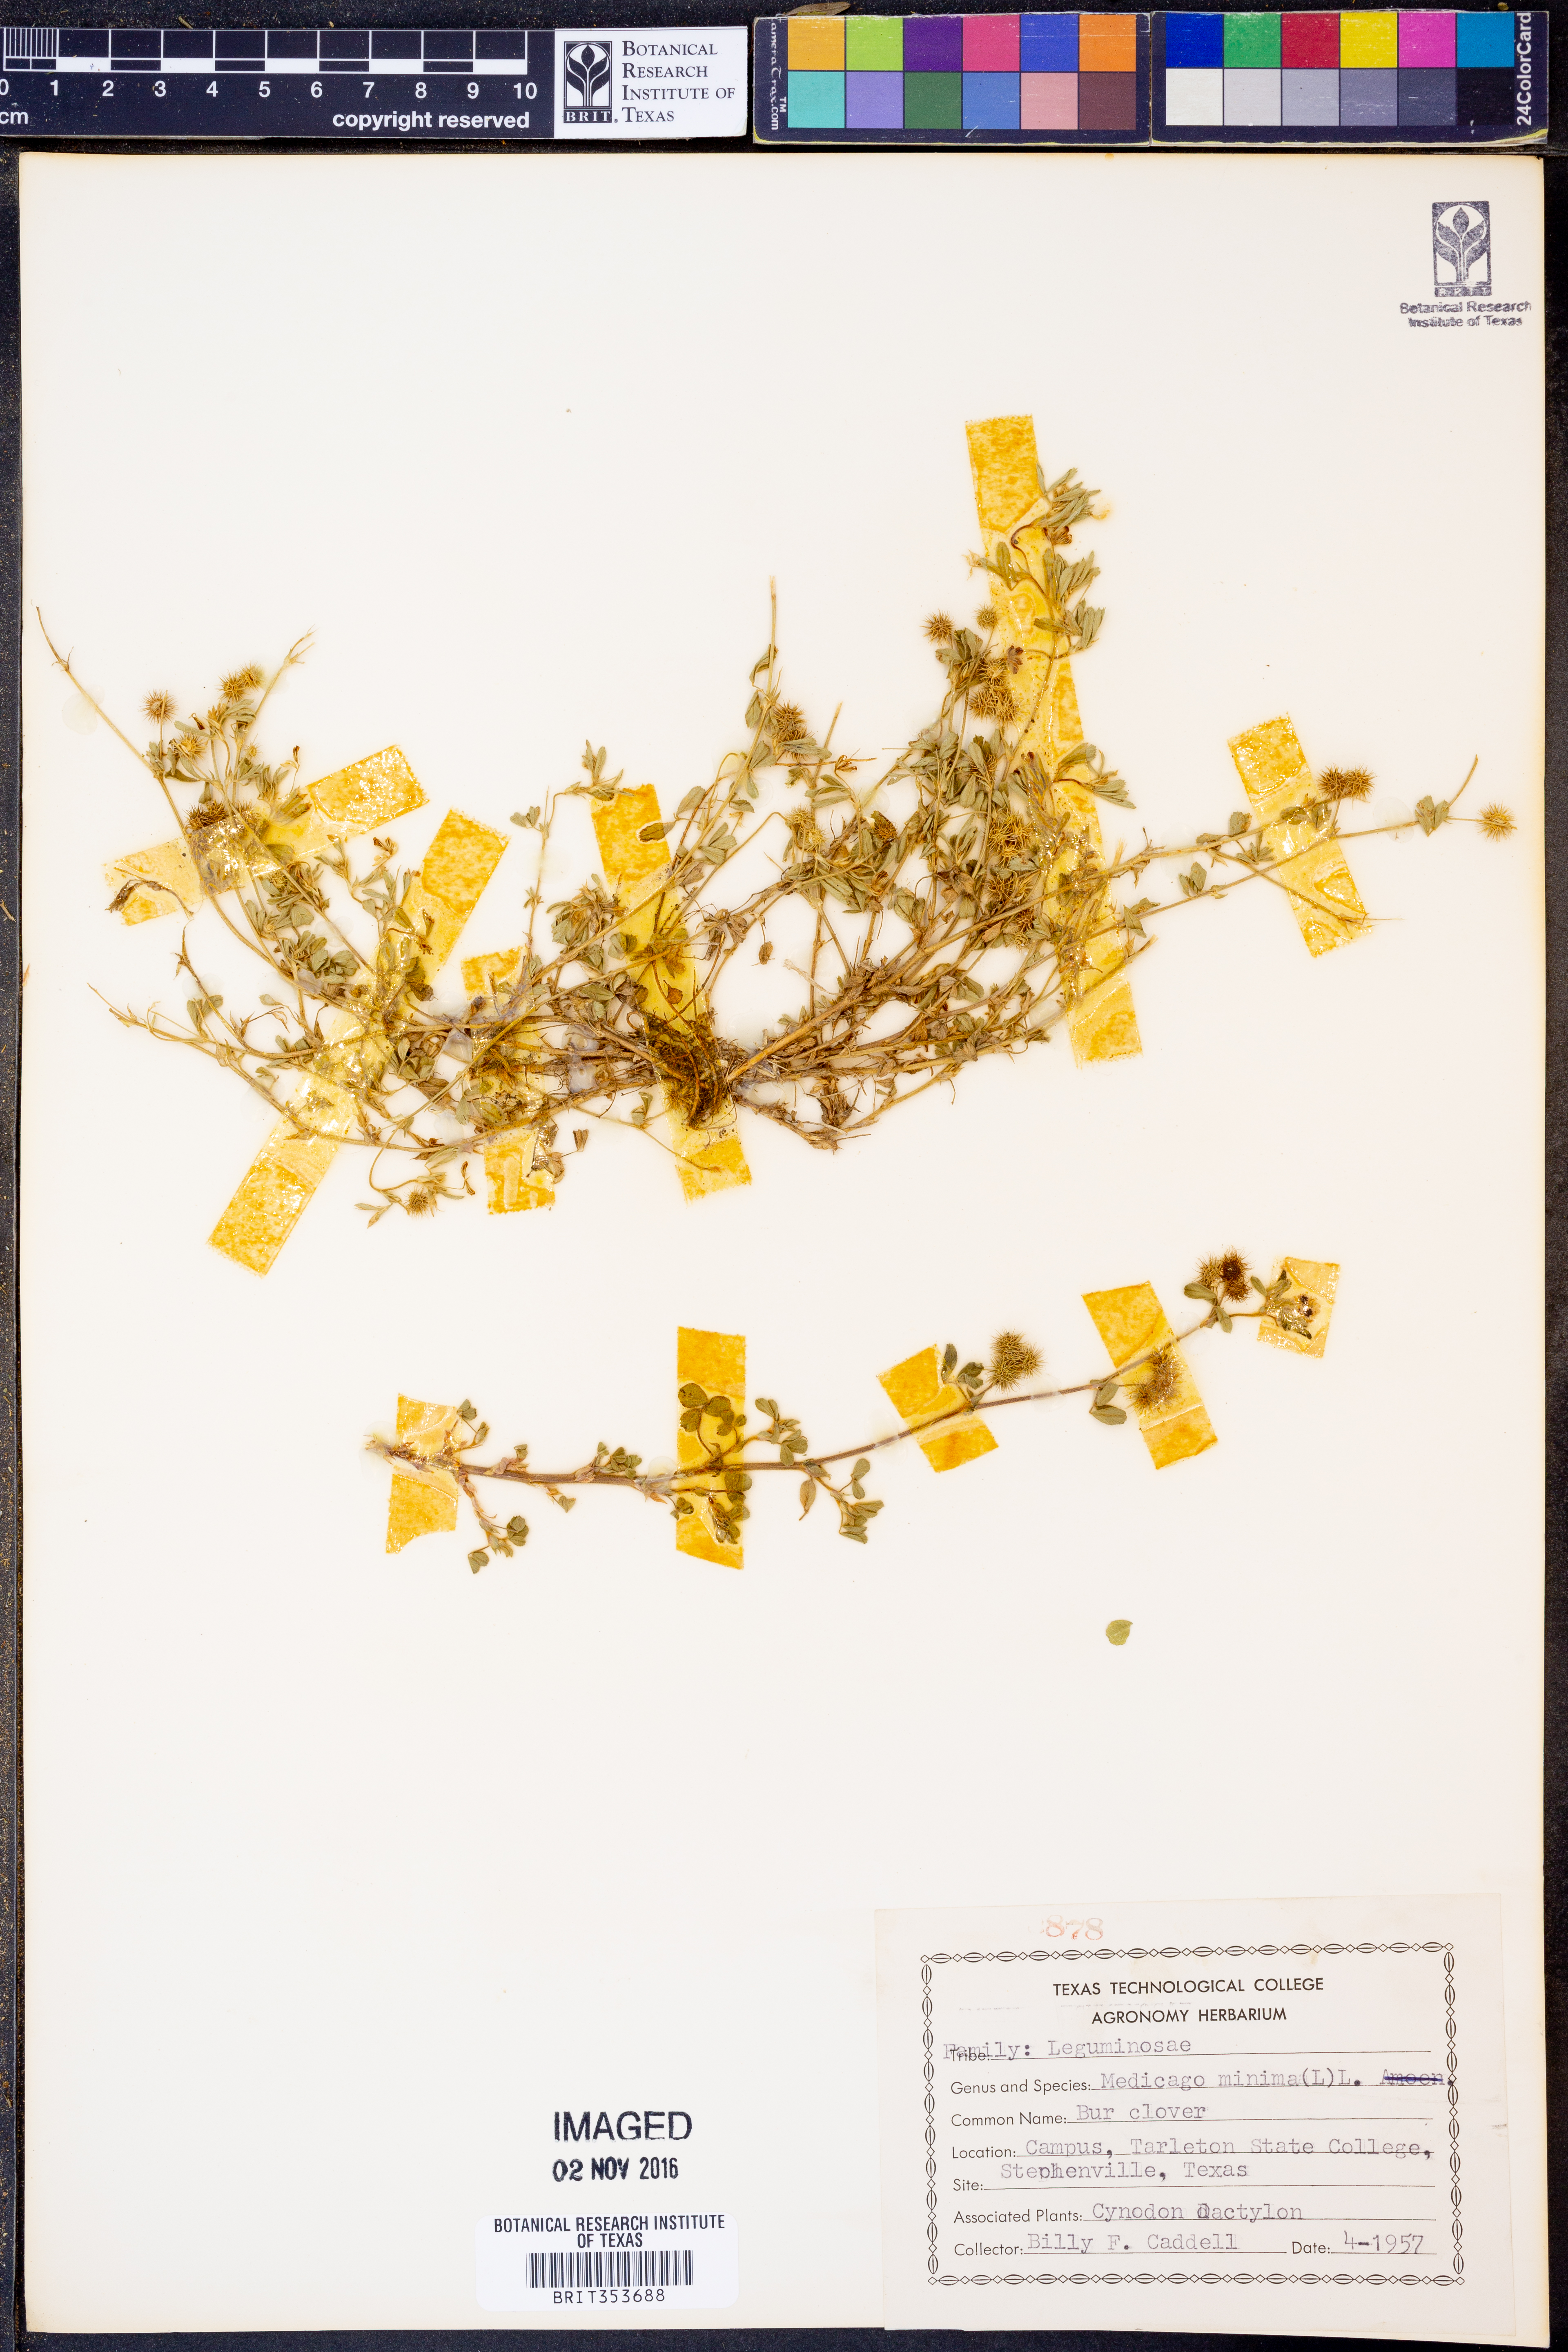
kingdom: Plantae
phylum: Tracheophyta
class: Magnoliopsida
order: Fabales
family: Fabaceae
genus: Medicago
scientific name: Medicago minima
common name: Little bur-clover
